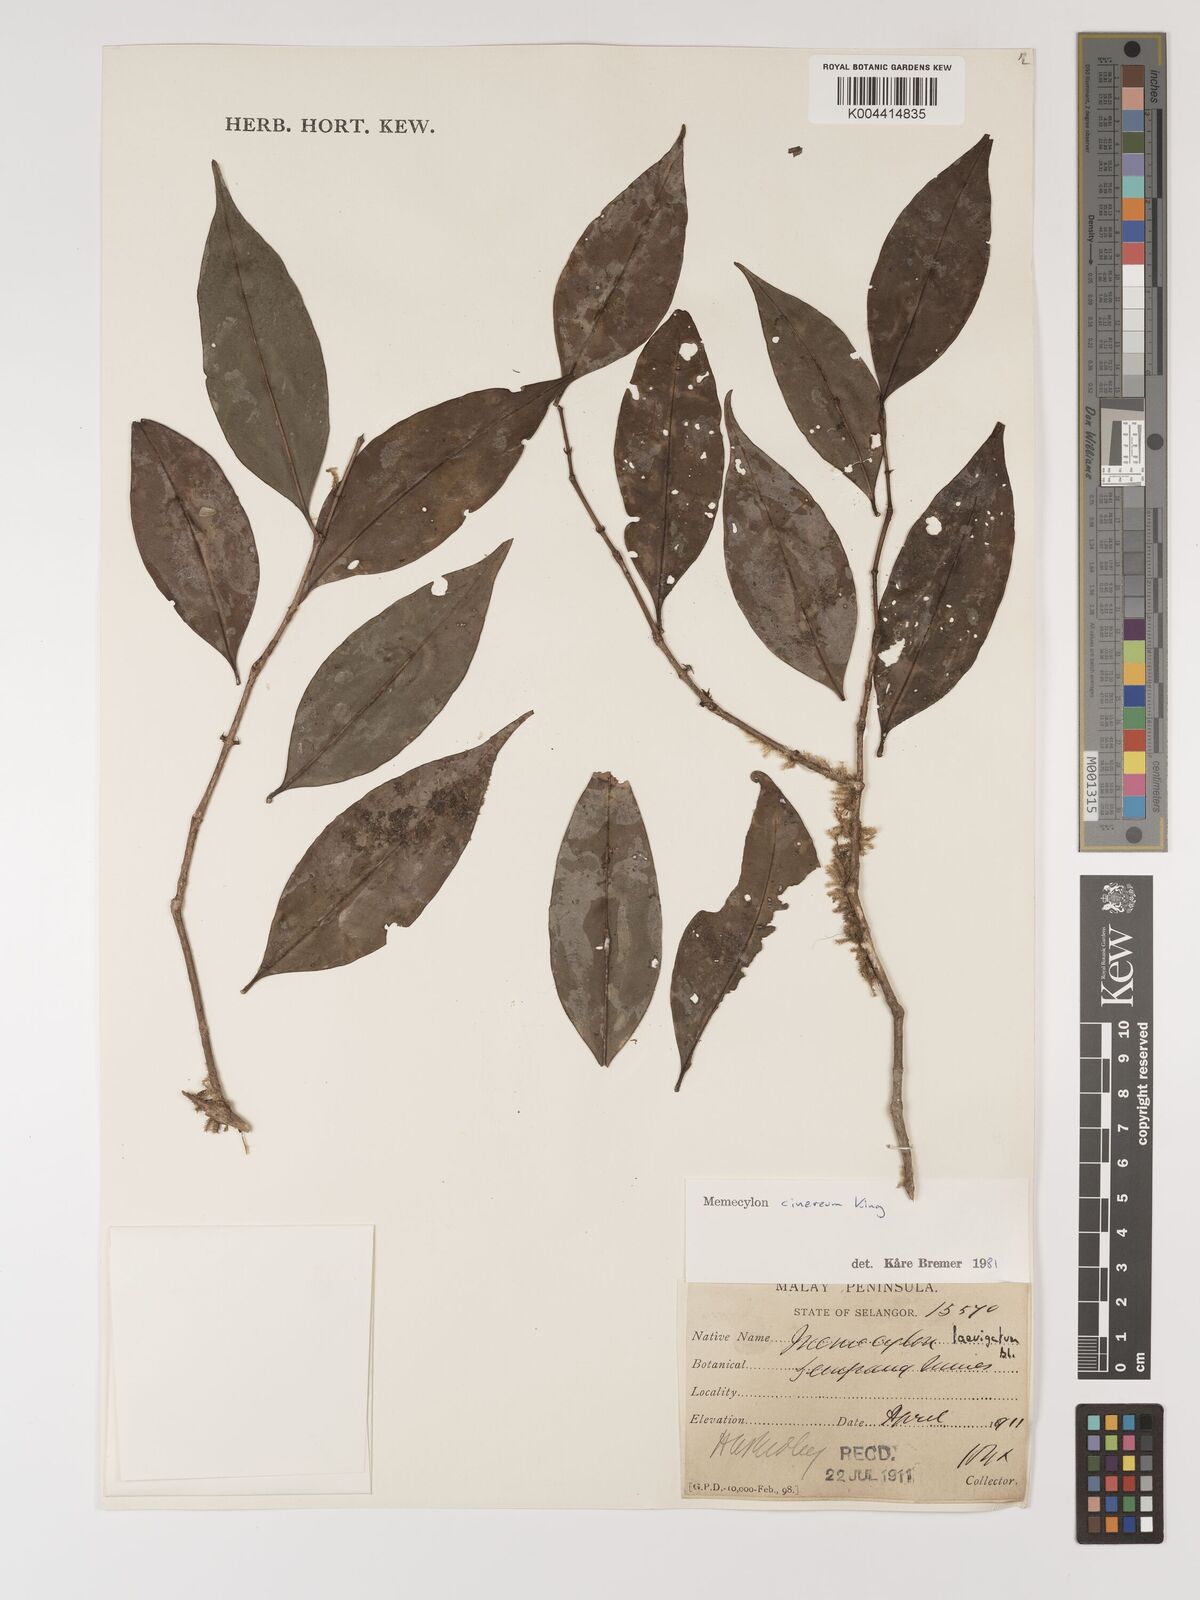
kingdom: Plantae
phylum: Tracheophyta
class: Magnoliopsida
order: Myrtales
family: Melastomataceae
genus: Memecylon
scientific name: Memecylon cinereum
